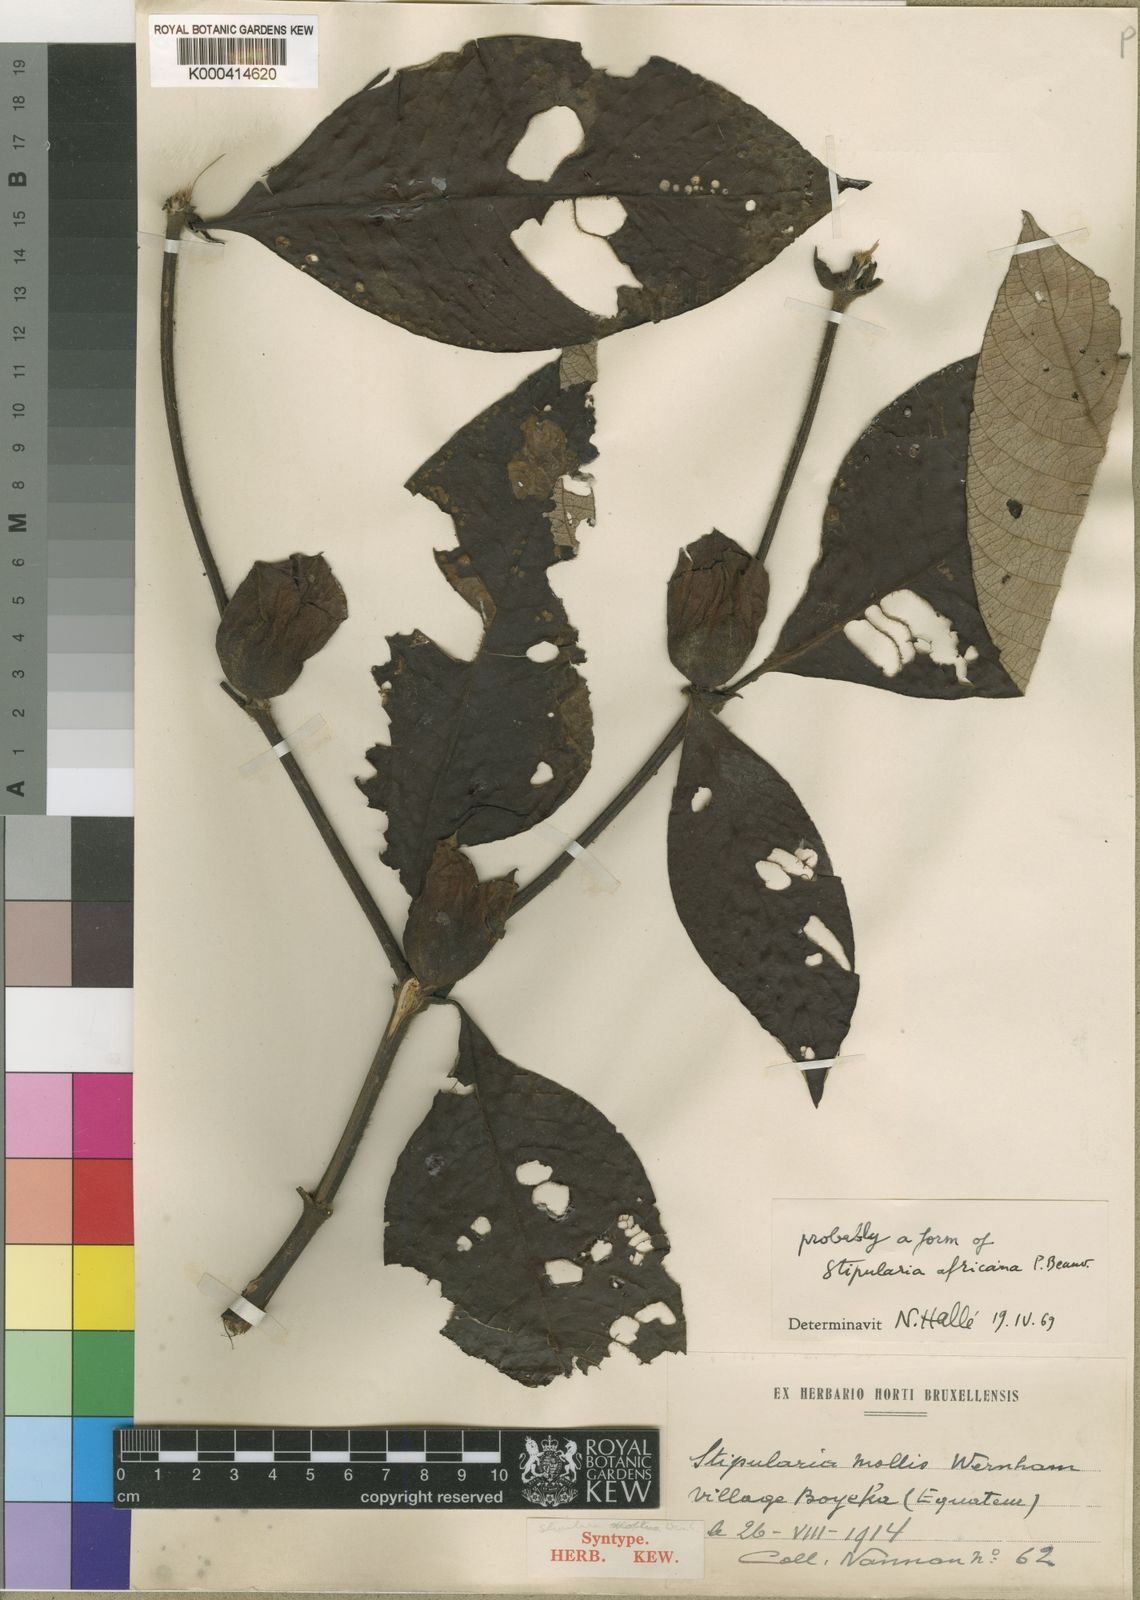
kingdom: Plantae
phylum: Tracheophyta
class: Magnoliopsida
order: Gentianales
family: Rubiaceae
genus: Sabicea
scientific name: Sabicea lanata
